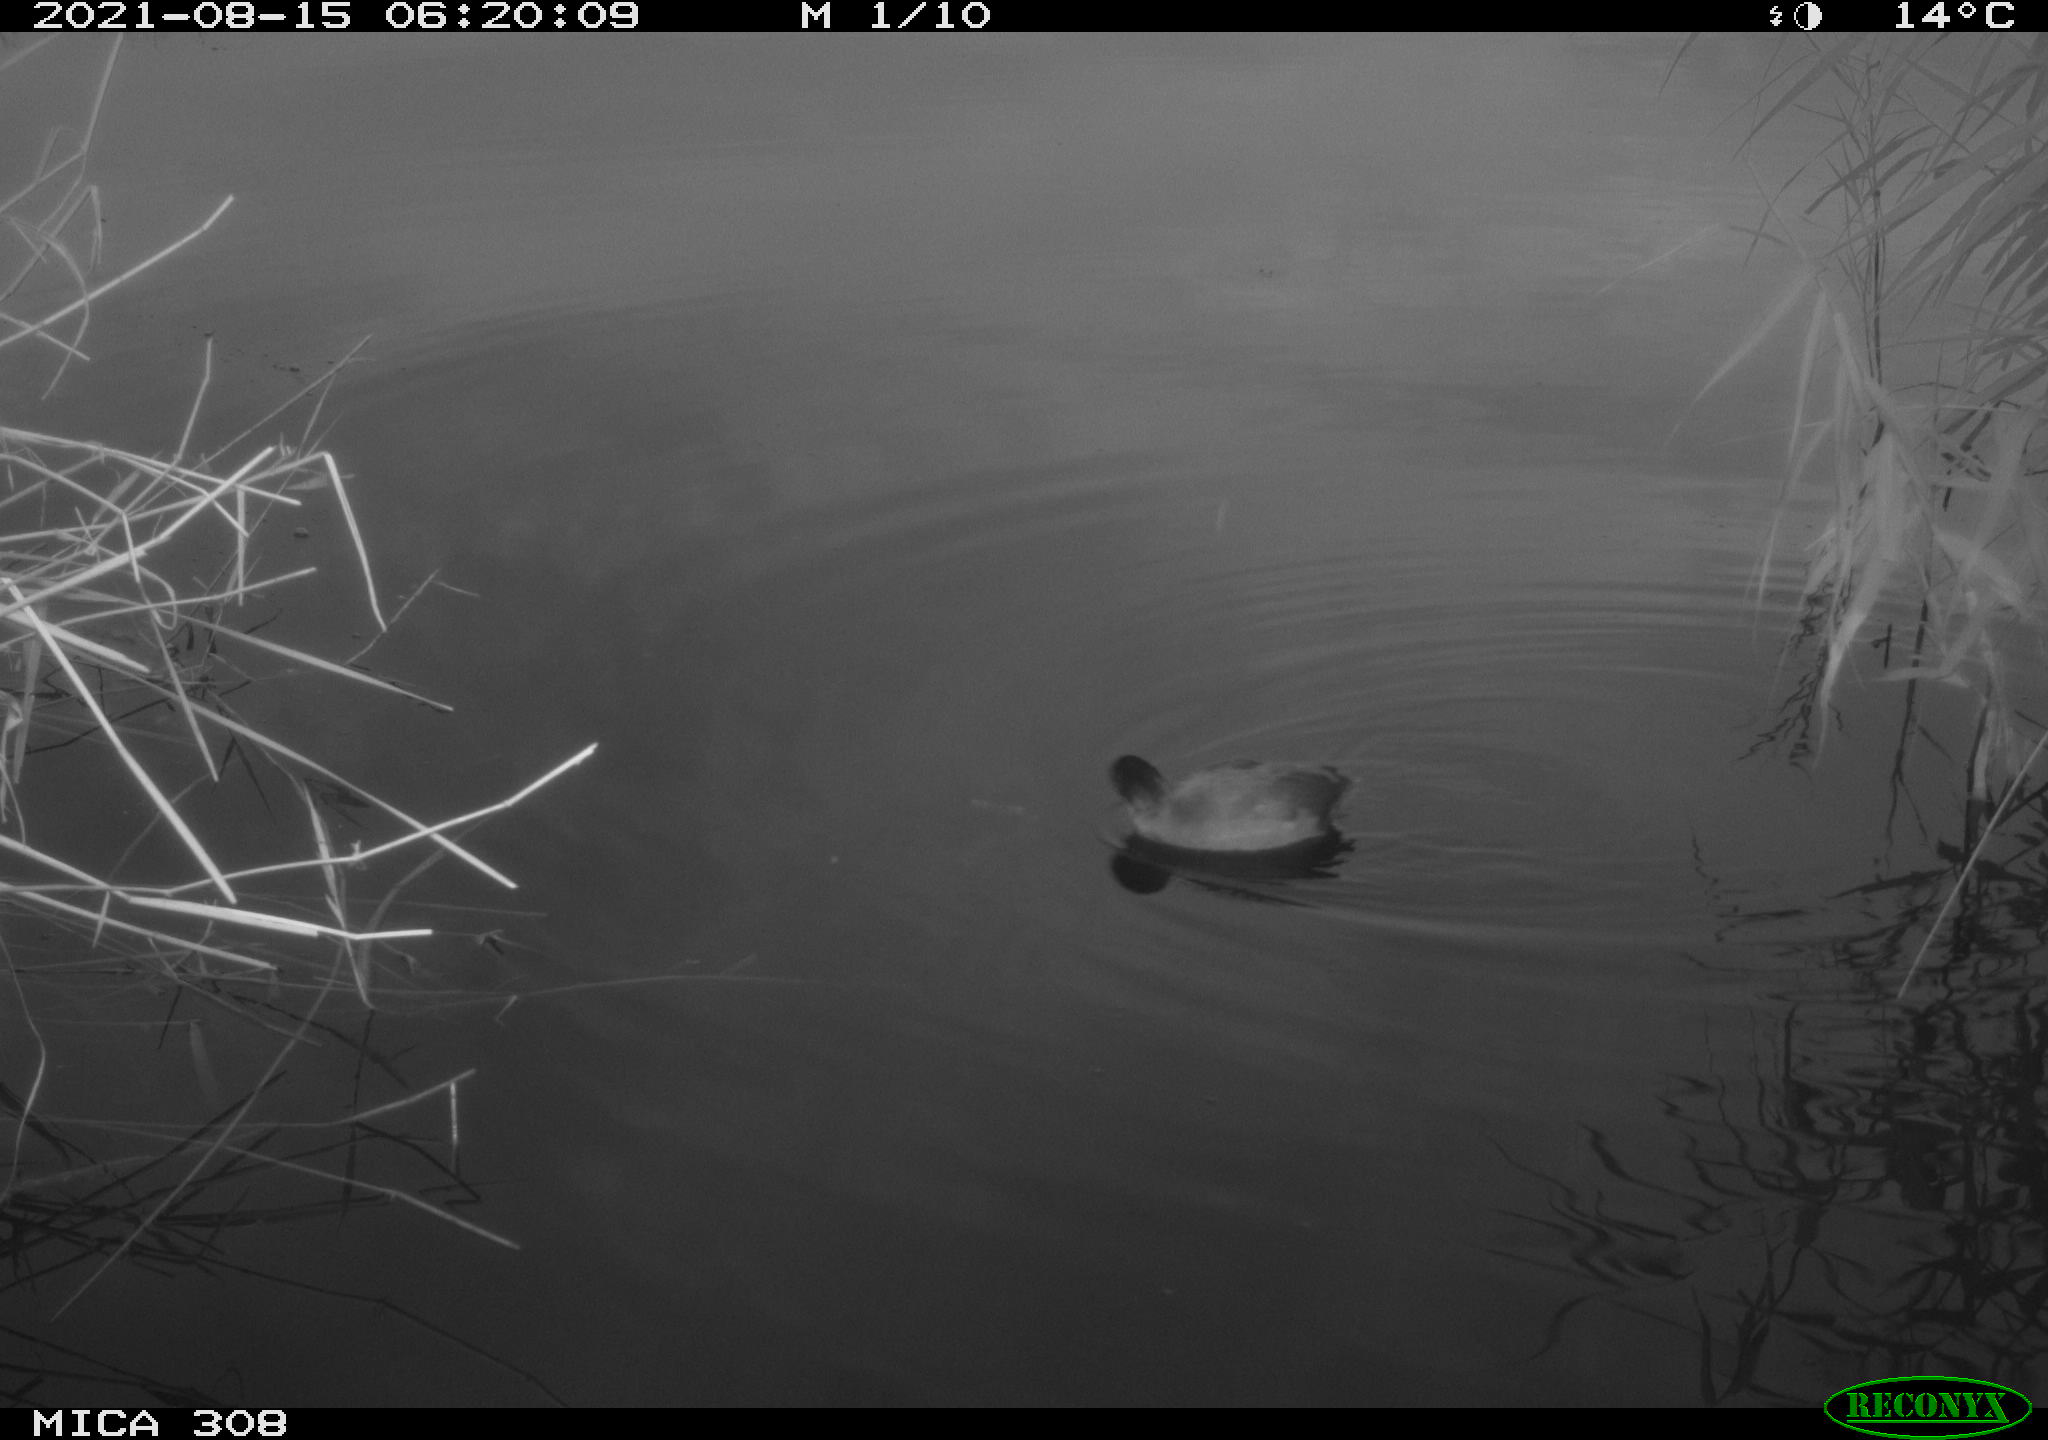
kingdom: Animalia
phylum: Chordata
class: Aves
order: Gruiformes
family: Rallidae
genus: Fulica
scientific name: Fulica atra
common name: Eurasian coot
